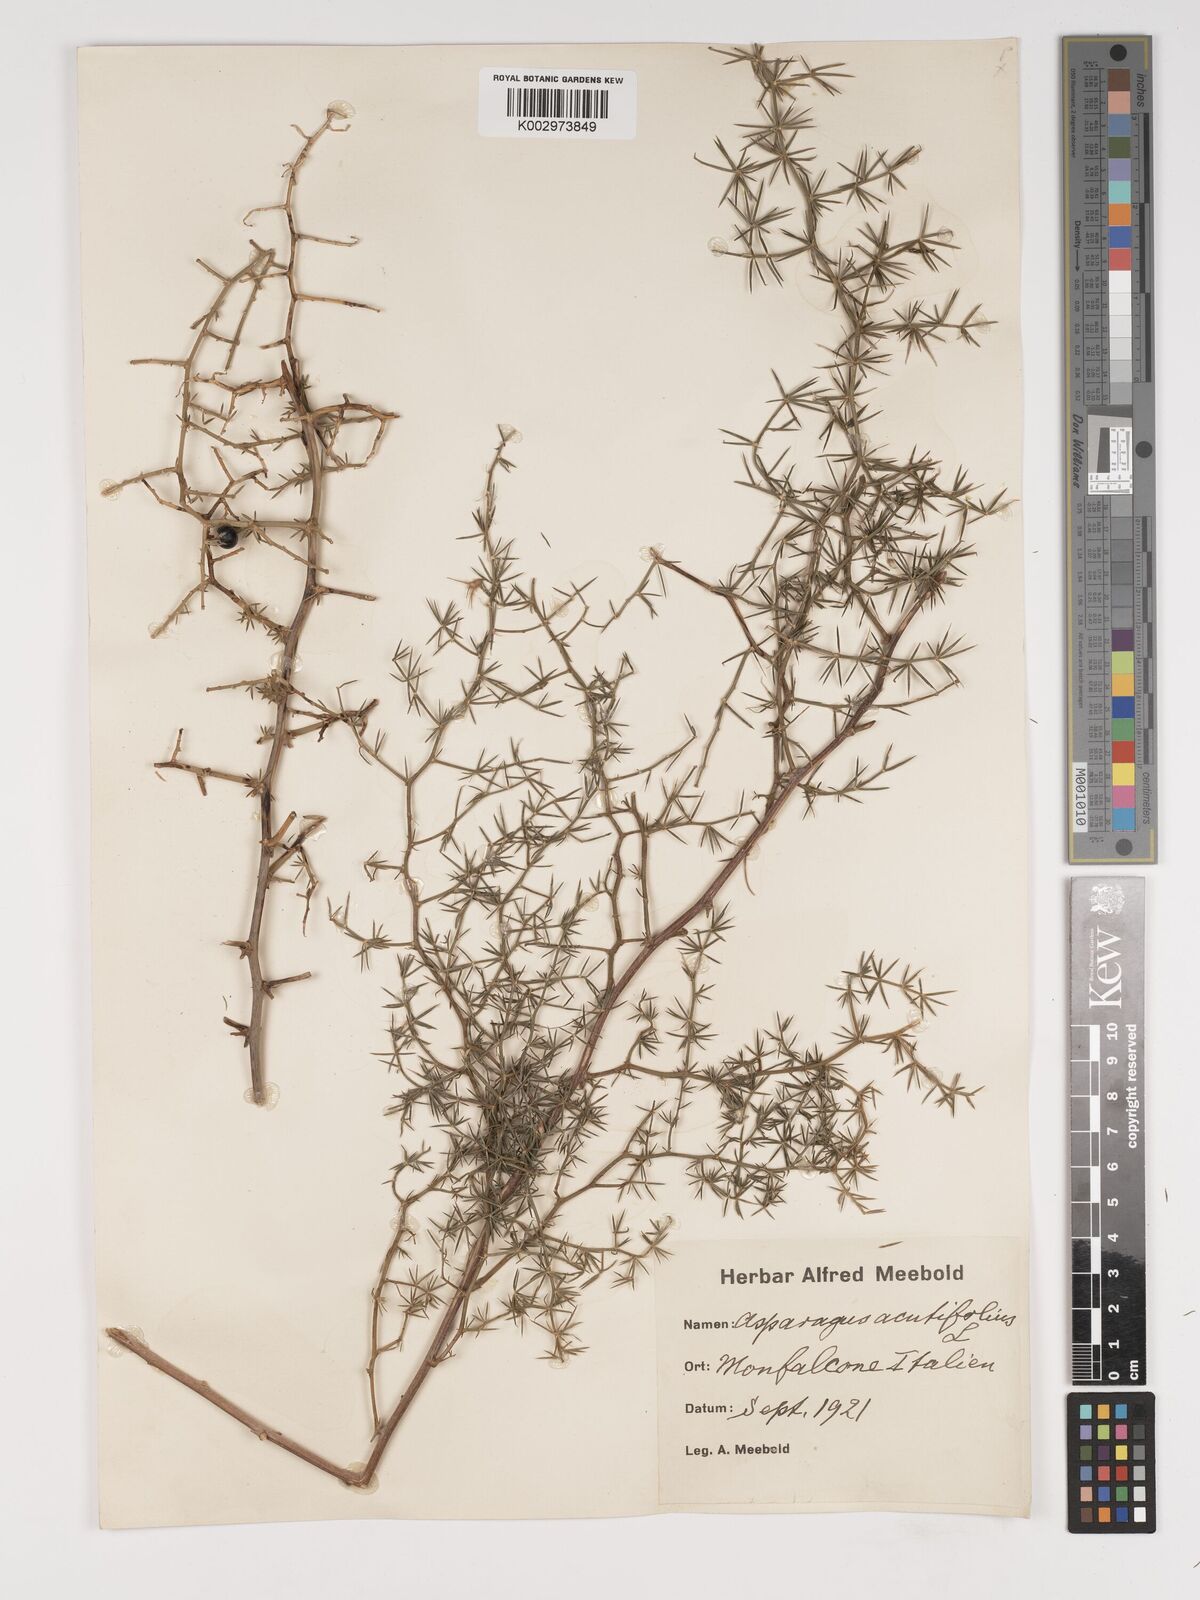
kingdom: Plantae
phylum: Tracheophyta
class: Liliopsida
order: Asparagales
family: Asparagaceae
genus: Asparagus
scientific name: Asparagus acutifolius
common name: Wild asparagus
